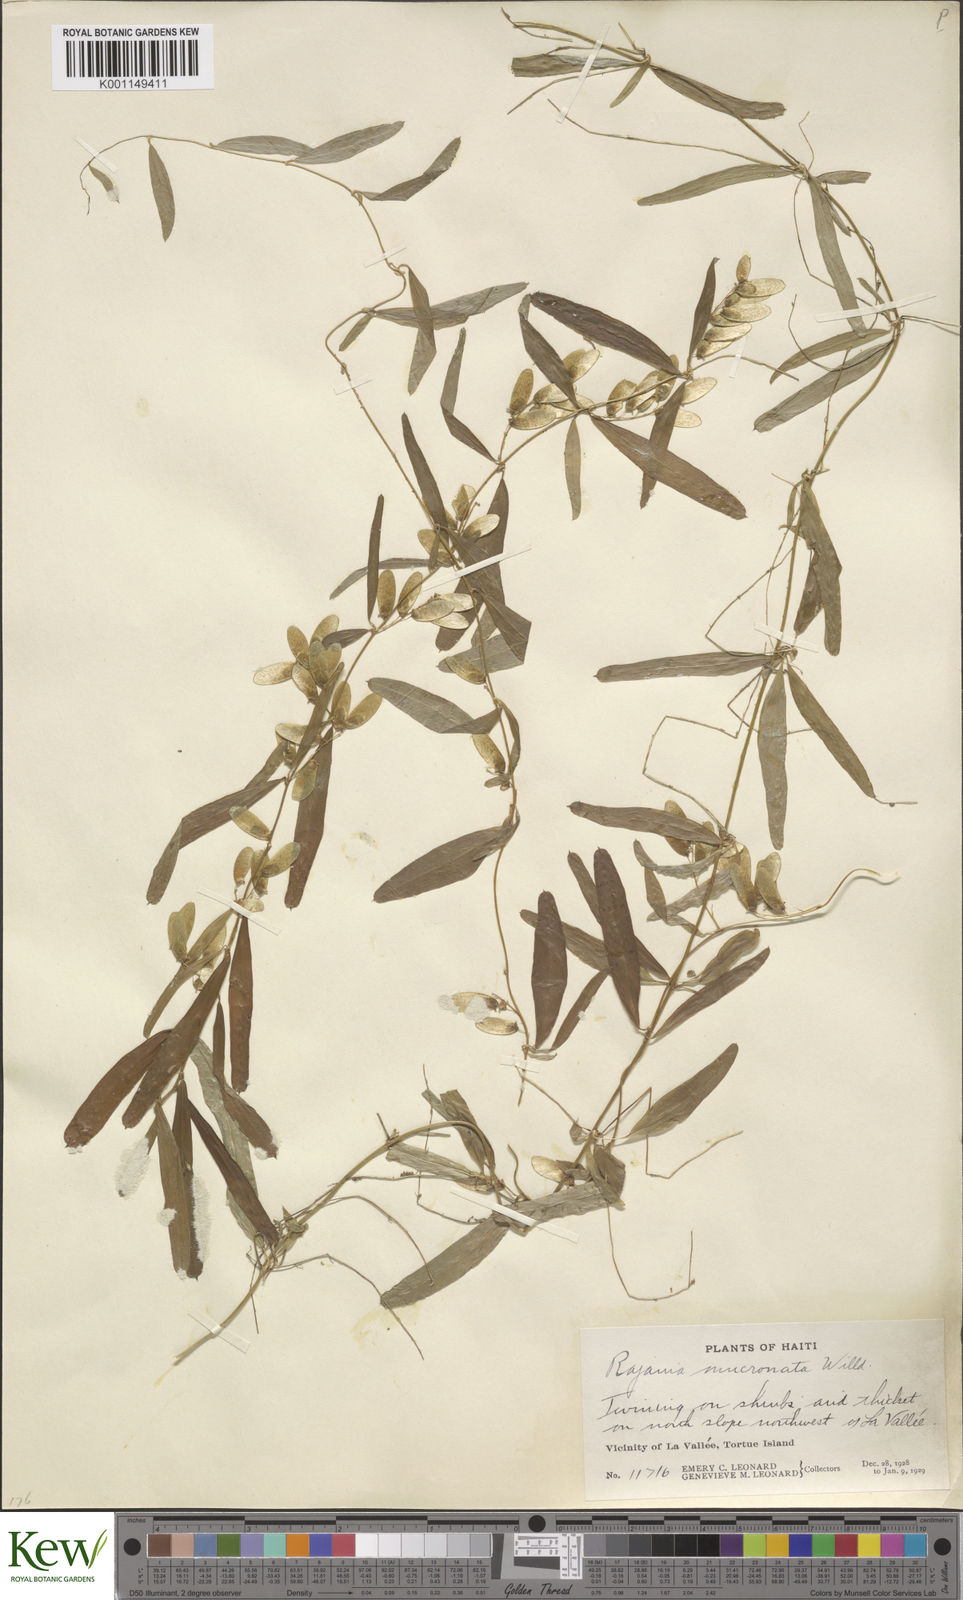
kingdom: Plantae
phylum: Tracheophyta
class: Liliopsida
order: Dioscoreales
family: Dioscoreaceae
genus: Dioscorea
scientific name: Dioscorea
